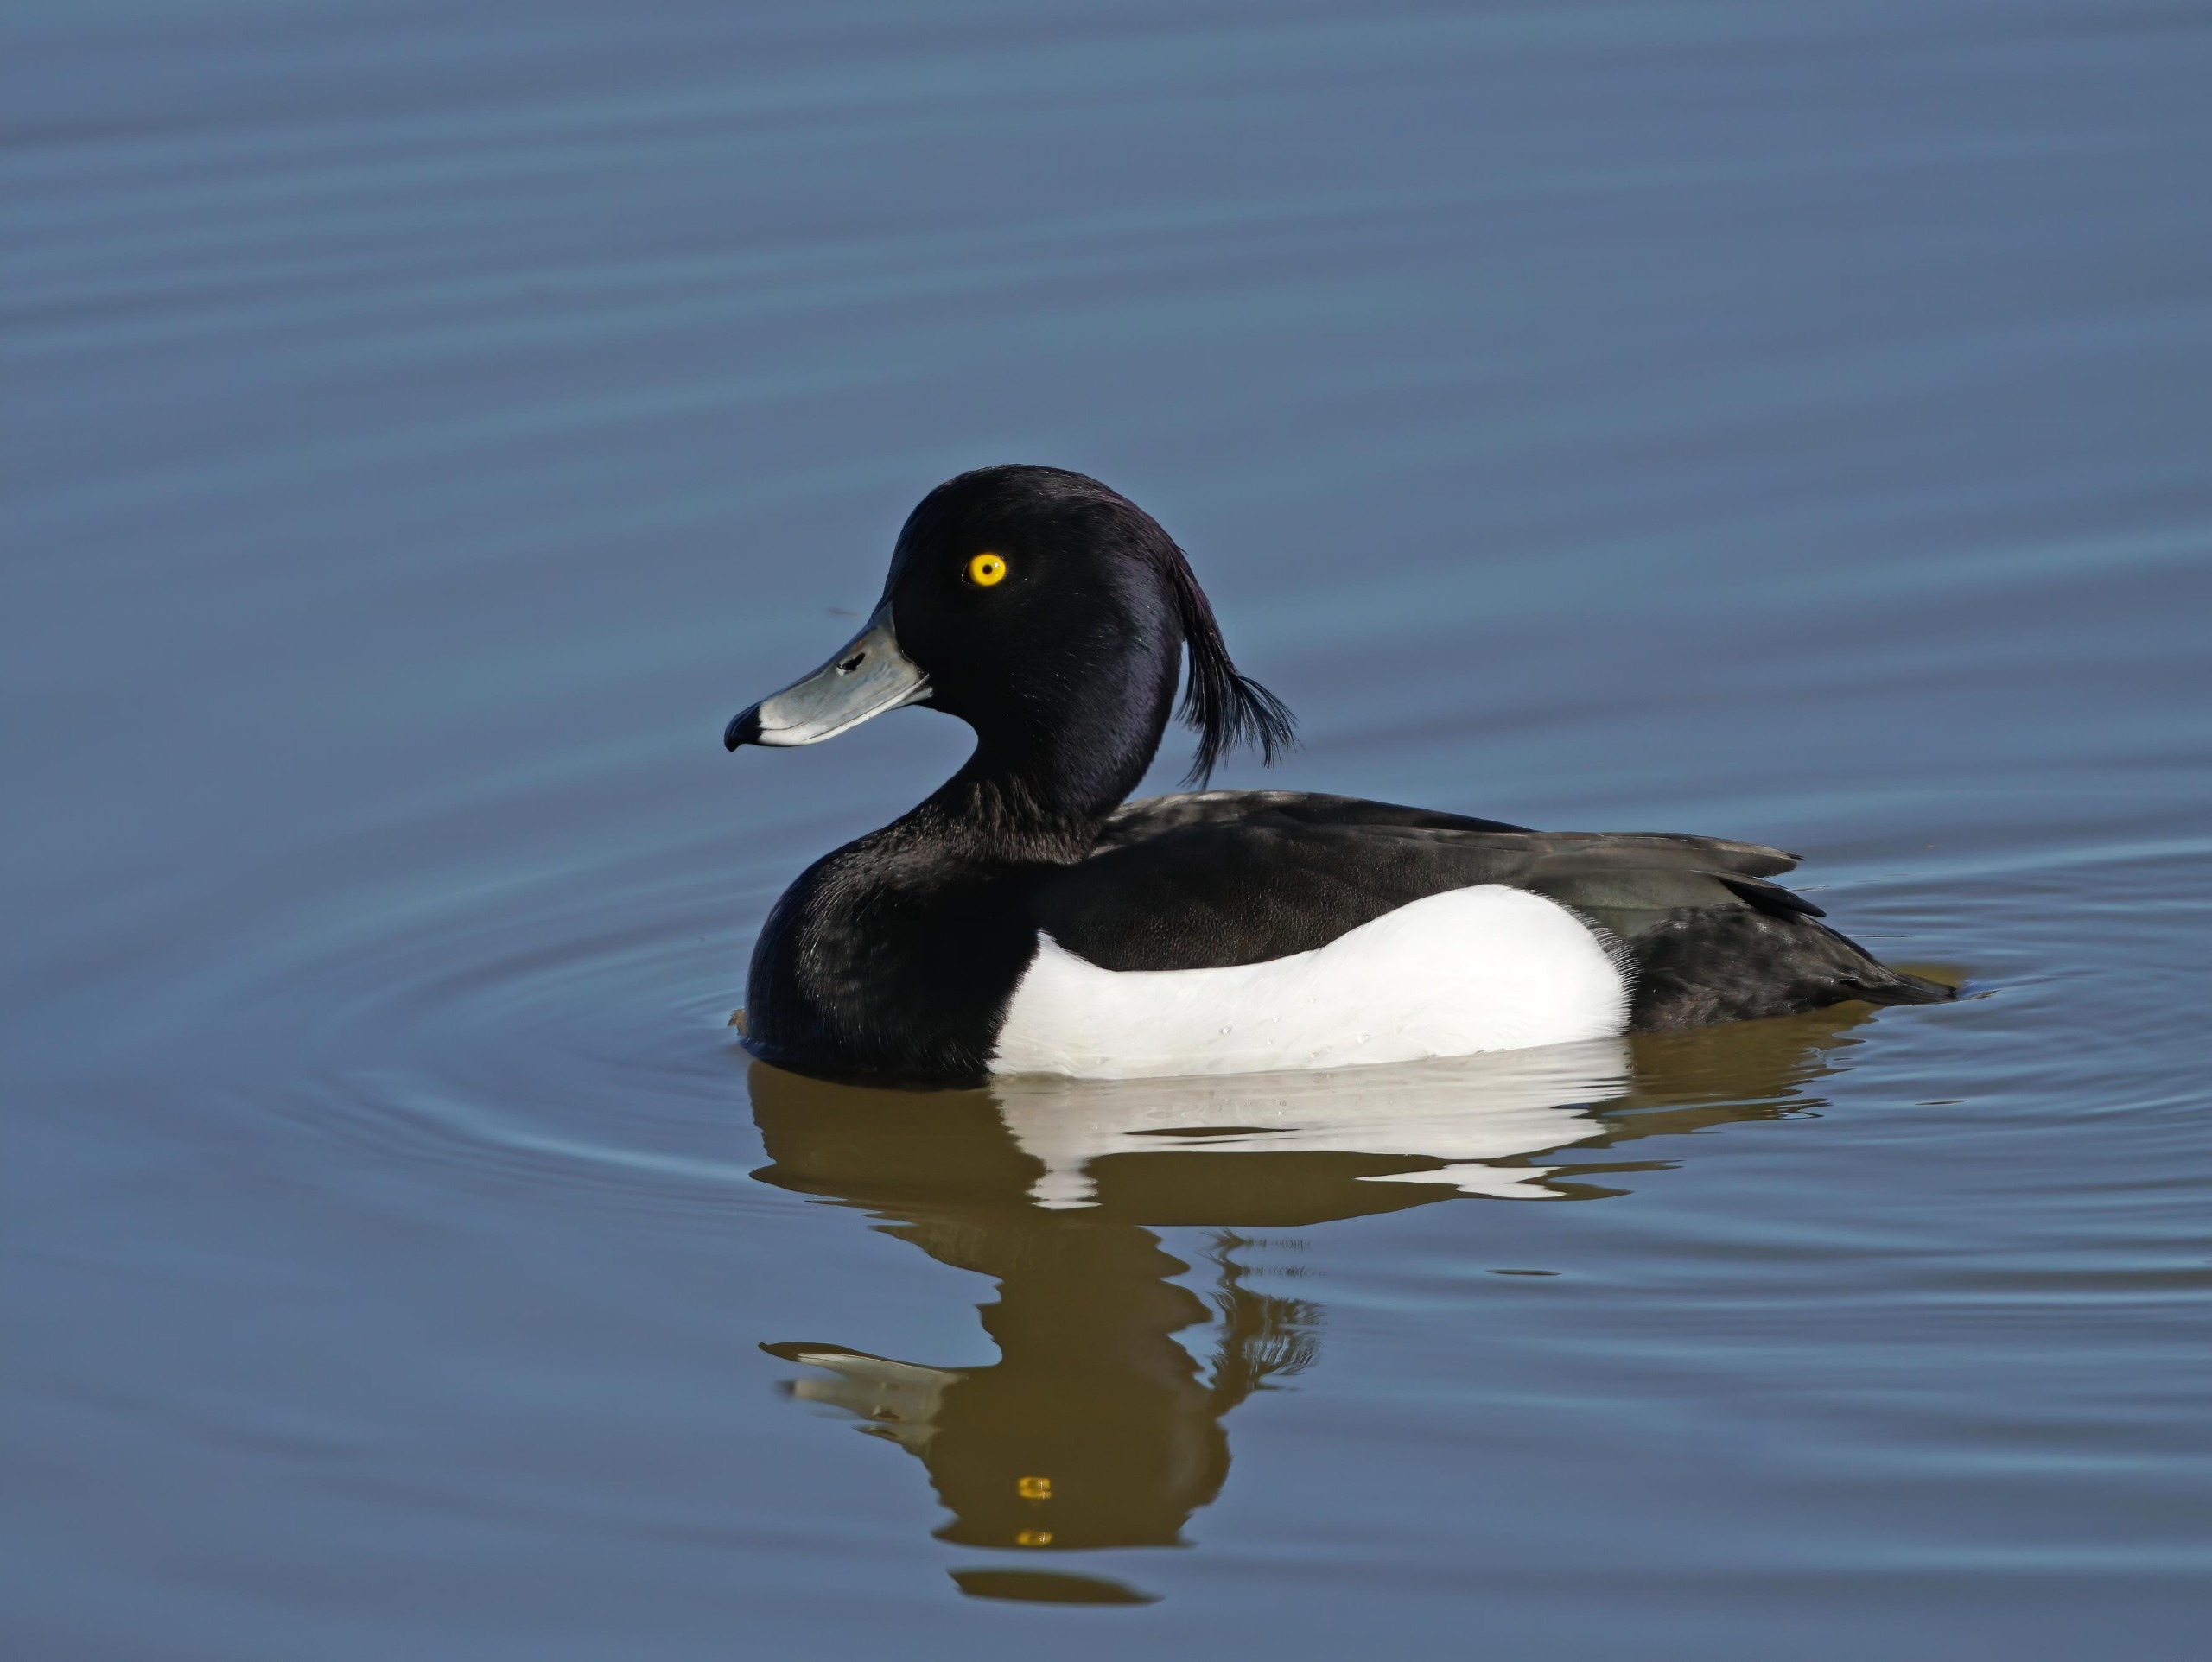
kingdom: Animalia
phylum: Chordata
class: Aves
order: Anseriformes
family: Anatidae
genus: Aythya
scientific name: Aythya fuligula
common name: Troldand
